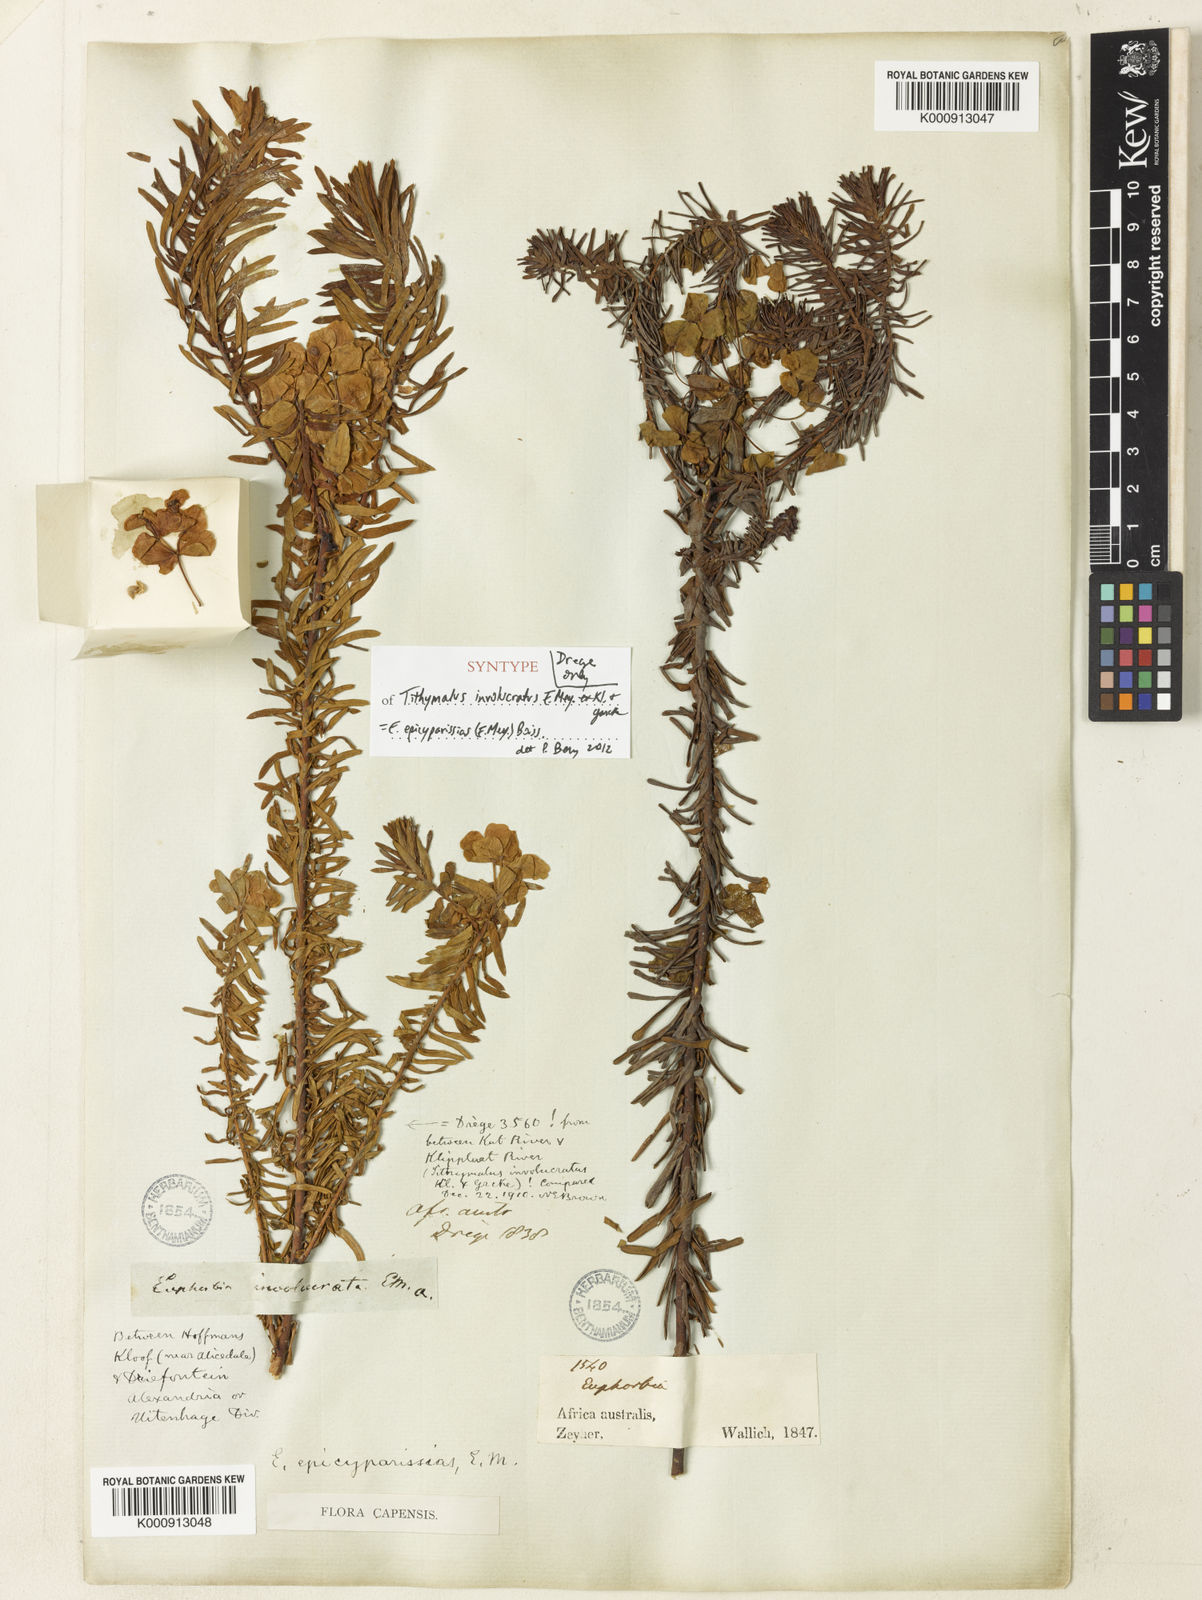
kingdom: Plantae
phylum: Tracheophyta
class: Magnoliopsida
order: Malpighiales
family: Euphorbiaceae
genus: Euphorbia
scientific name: Euphorbia natalensis
